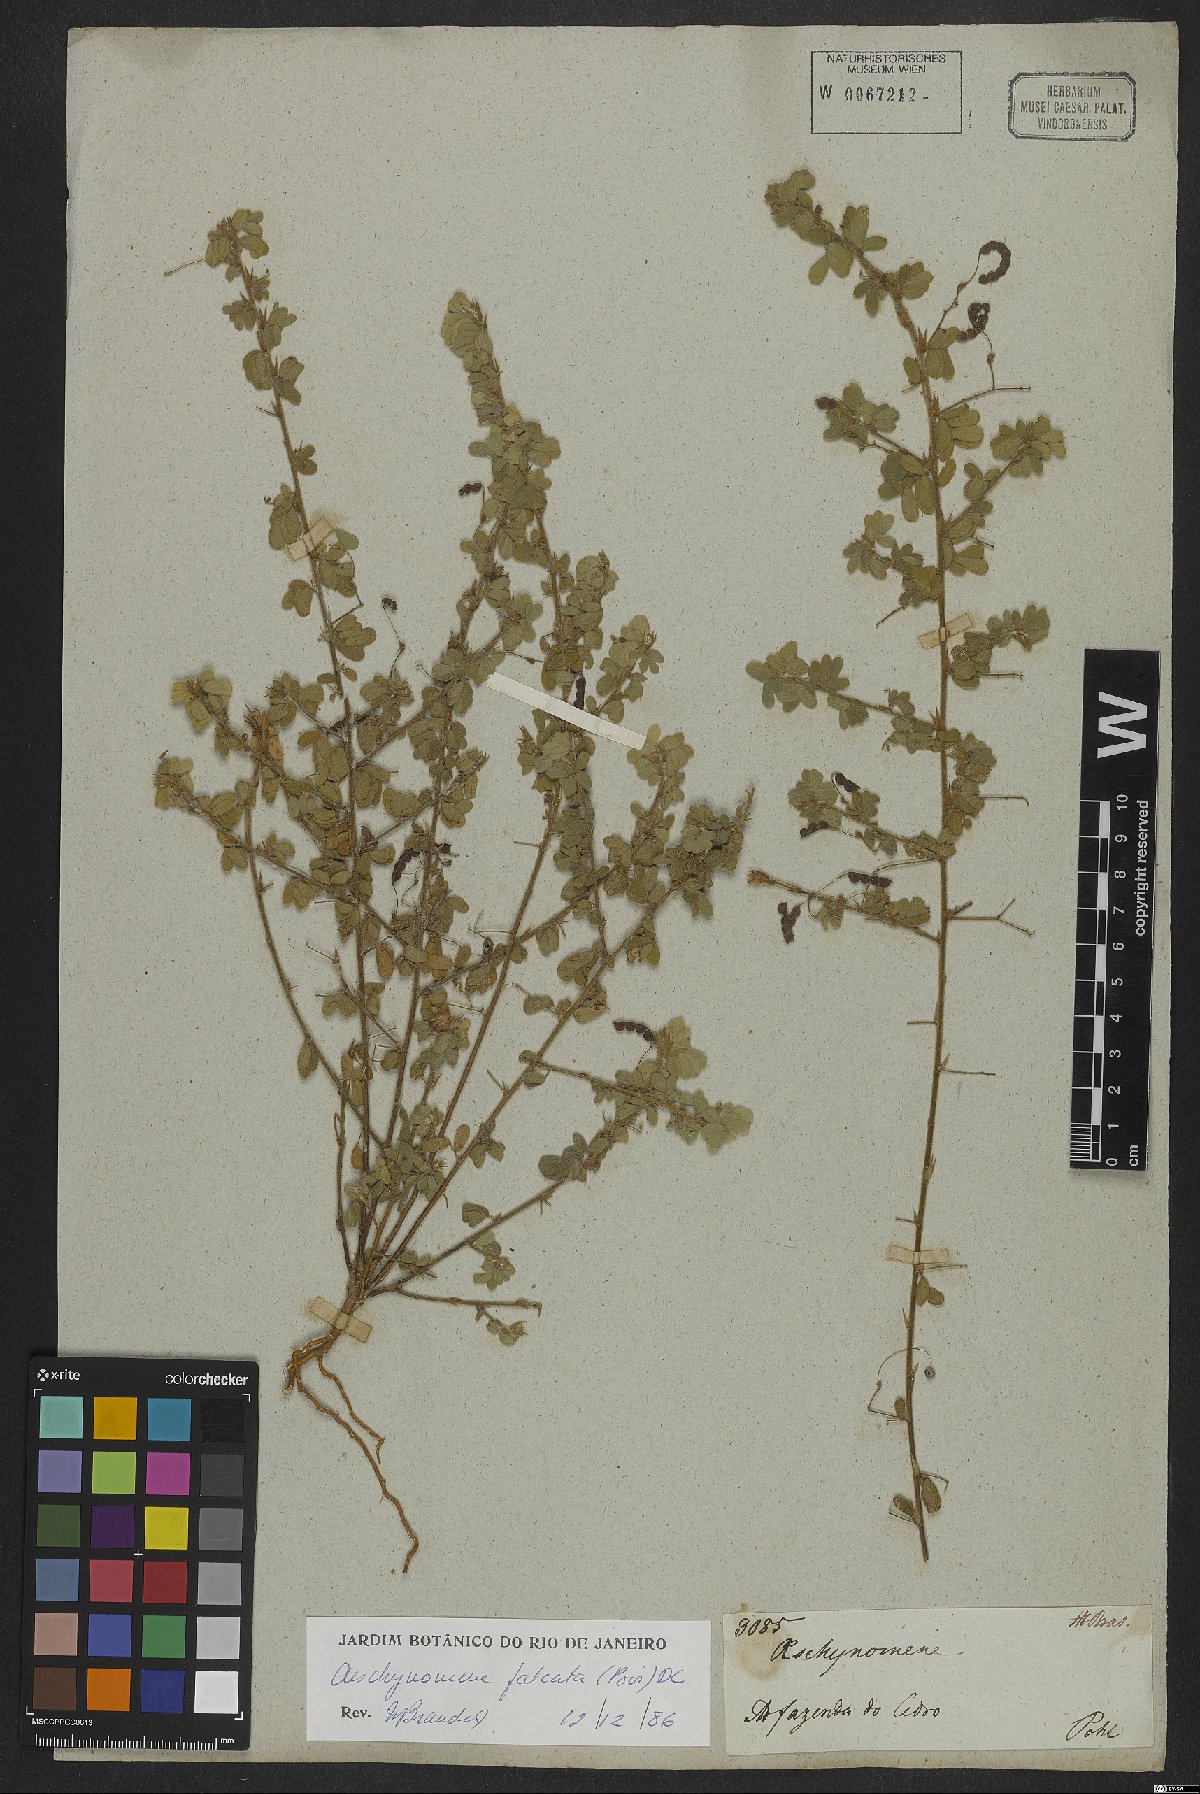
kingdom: Plantae
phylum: Tracheophyta
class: Magnoliopsida
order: Fabales
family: Fabaceae
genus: Ctenodon
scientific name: Ctenodon falcatus
